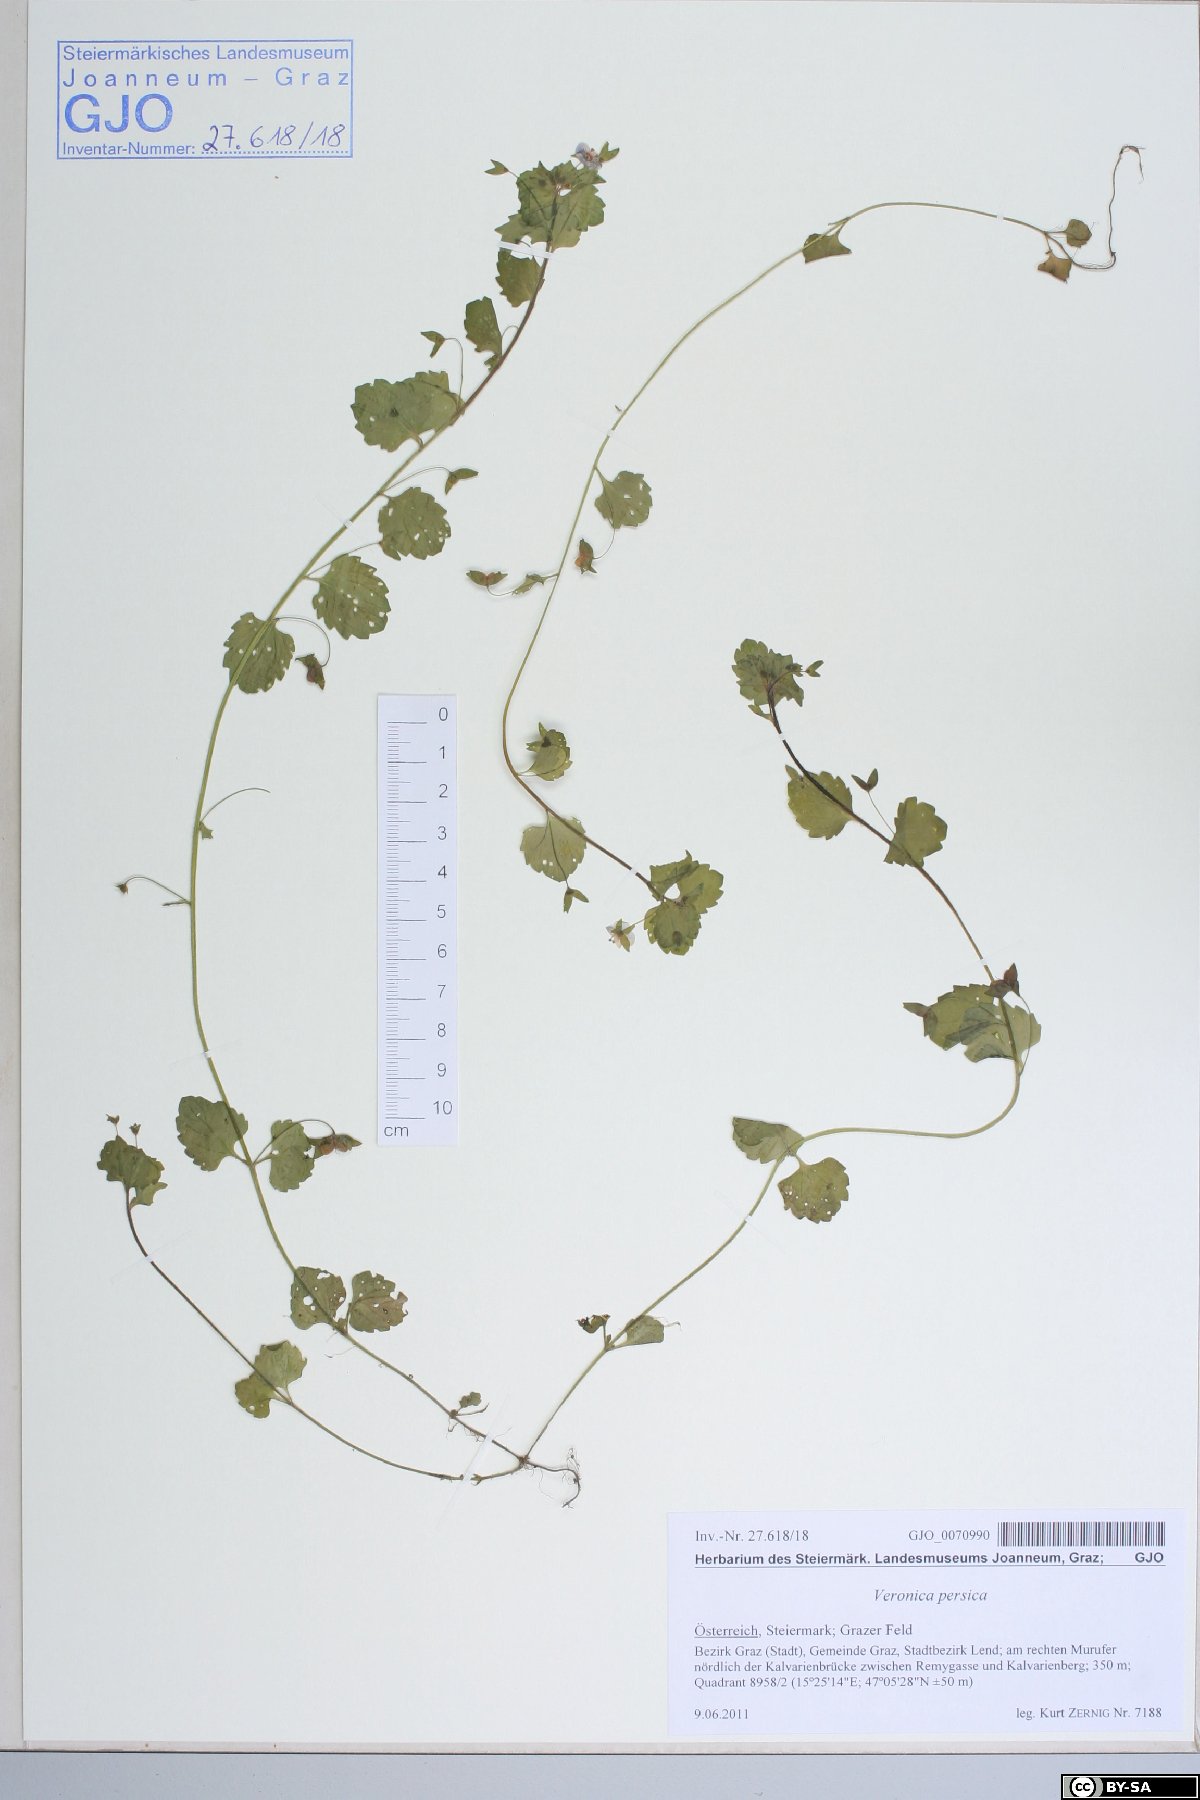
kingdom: Plantae
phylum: Tracheophyta
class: Magnoliopsida
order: Lamiales
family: Plantaginaceae
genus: Veronica
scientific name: Veronica persica
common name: Common field-speedwell
